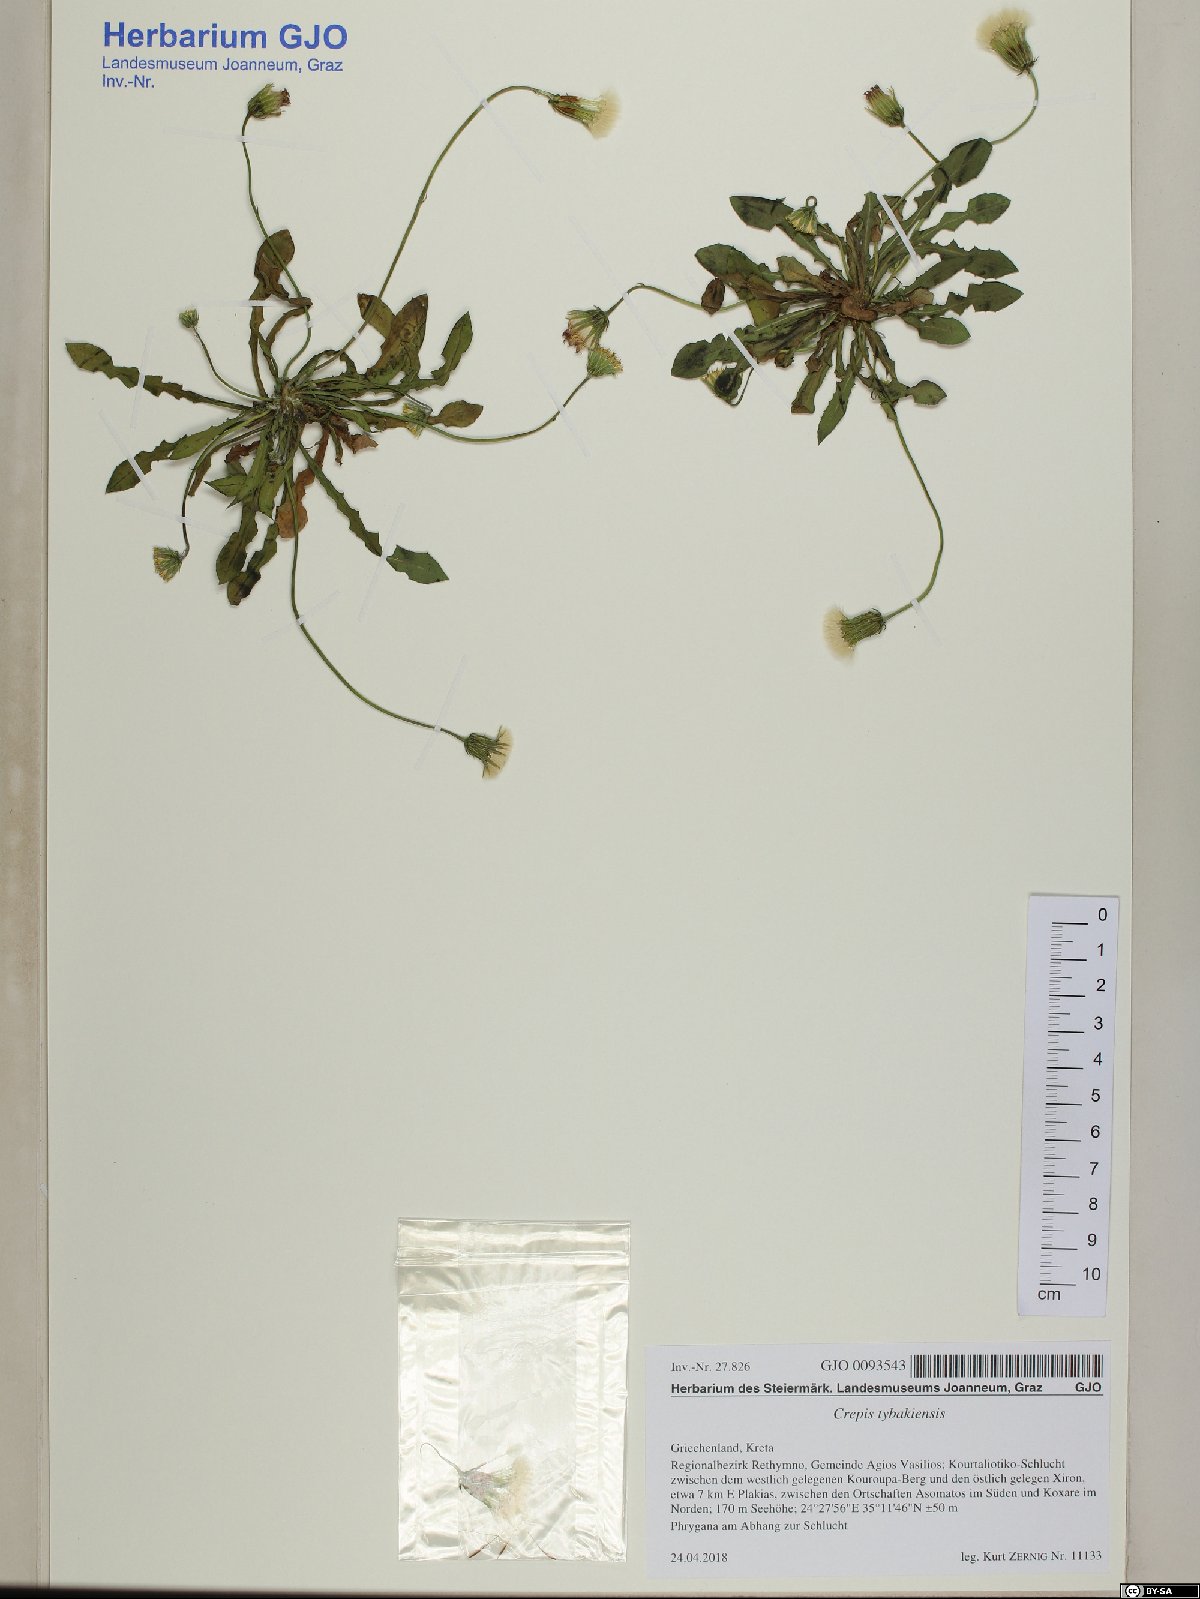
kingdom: Plantae
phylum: Tracheophyta
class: Magnoliopsida
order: Asterales
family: Asteraceae
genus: Crepis
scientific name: Crepis tybakiensis
